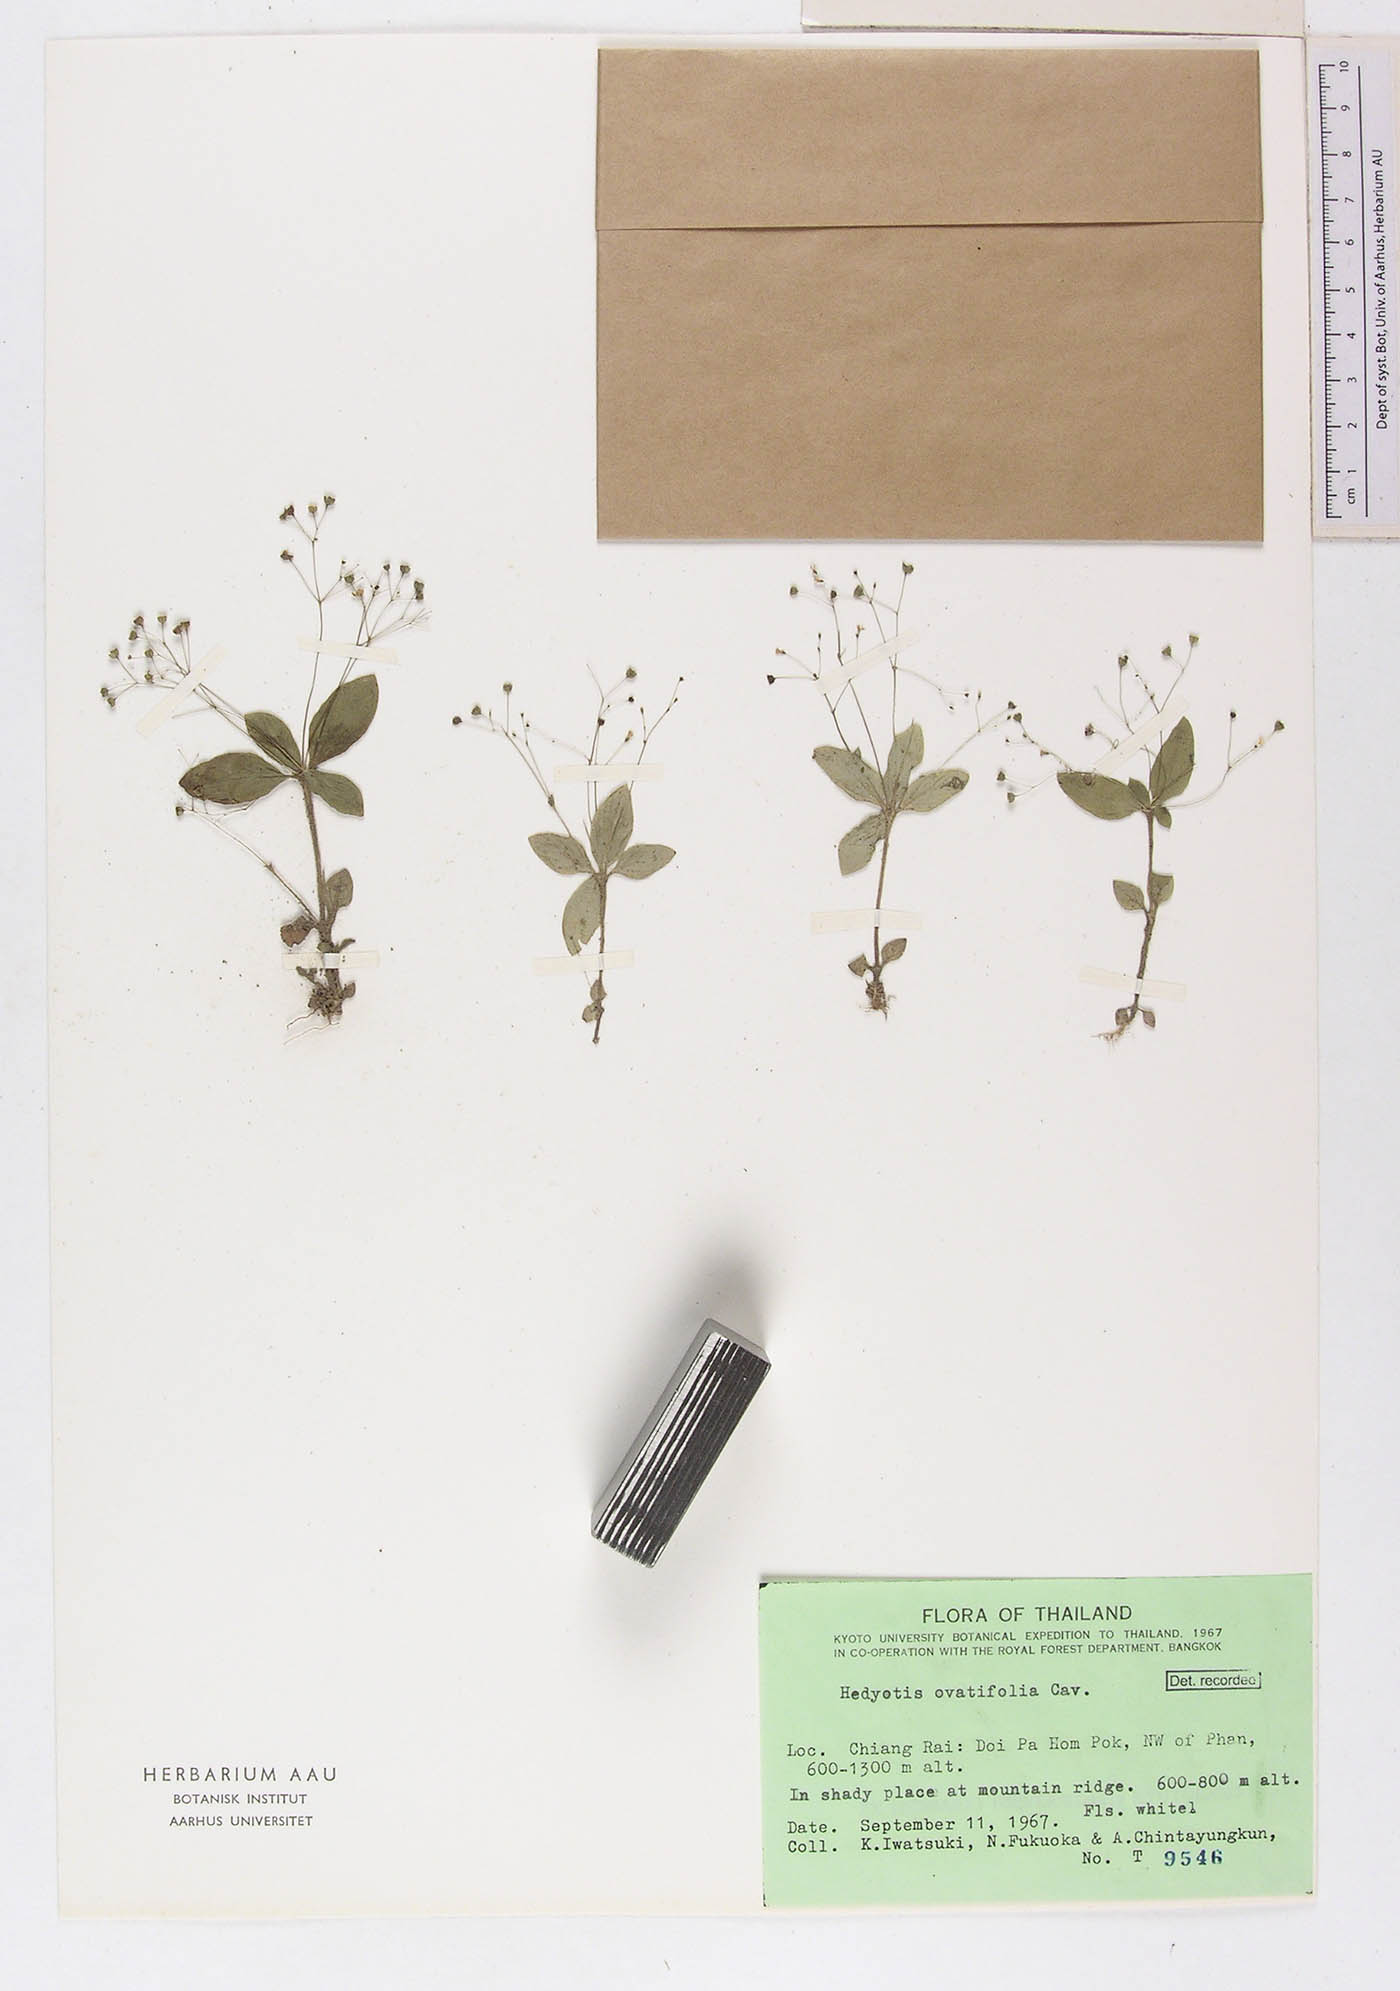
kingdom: Plantae
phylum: Tracheophyta
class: Magnoliopsida
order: Gentianales
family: Rubiaceae
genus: Debia
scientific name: Debia ovatifolia
